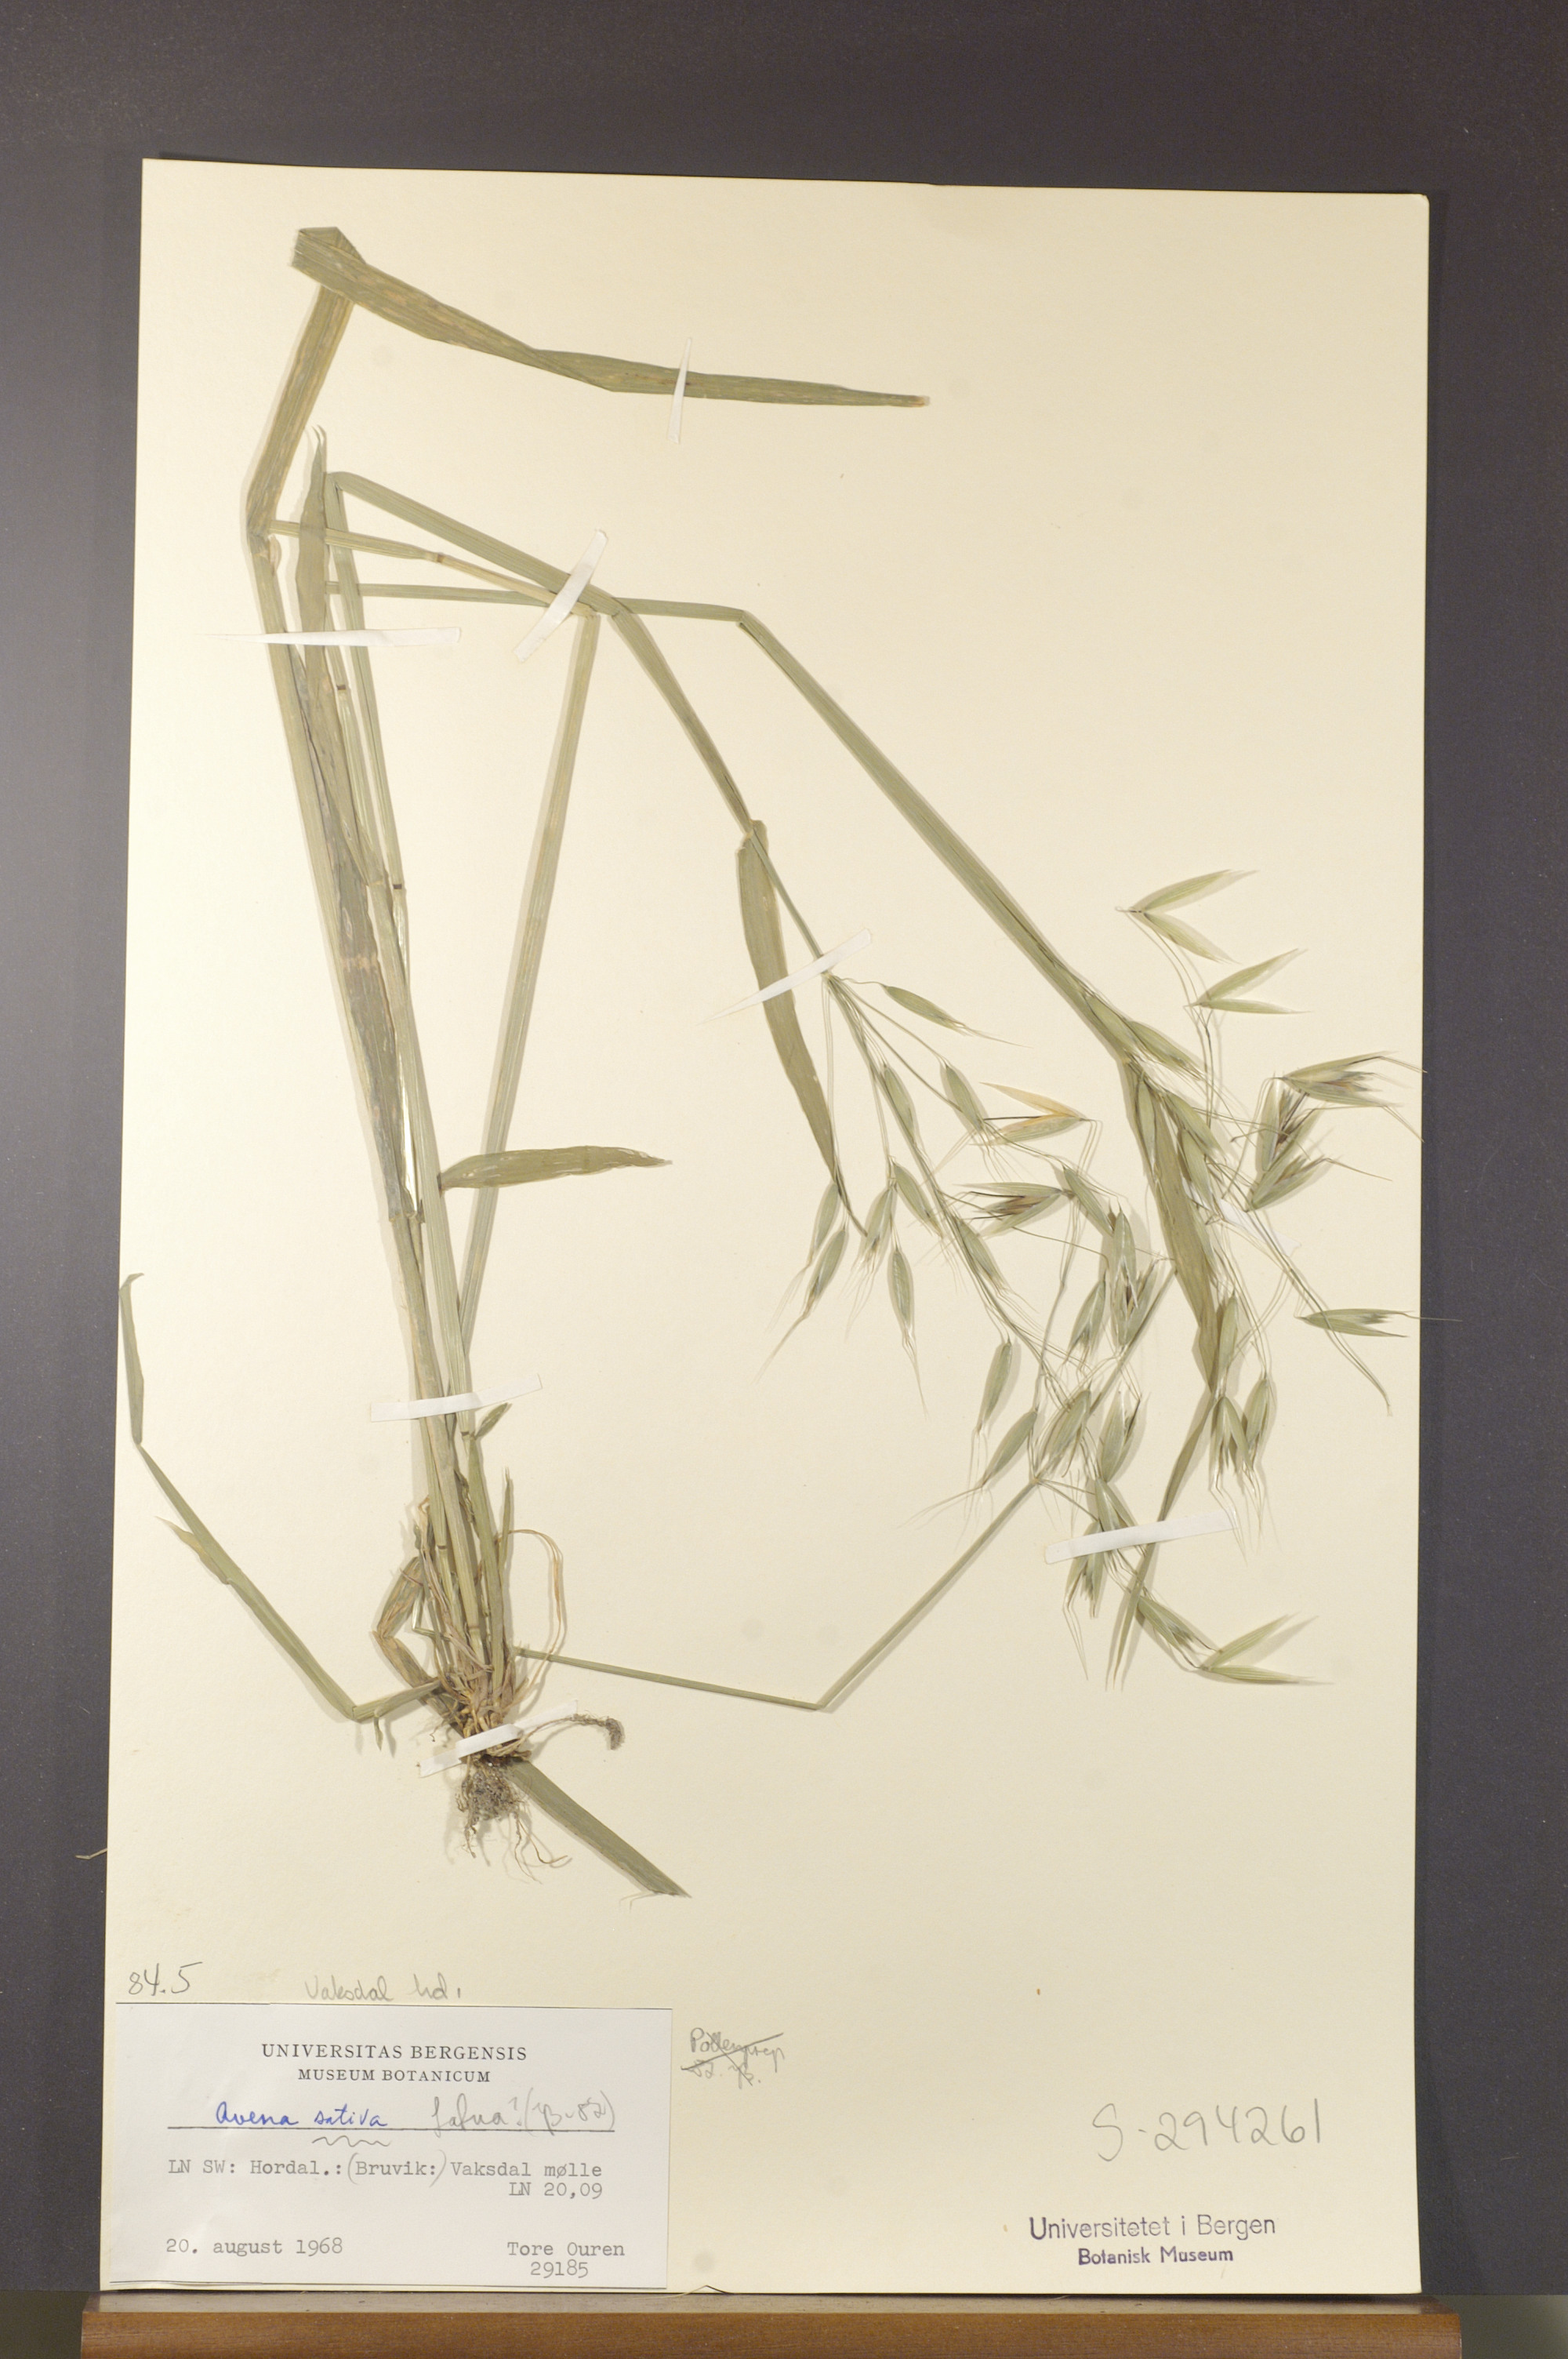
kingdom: Plantae
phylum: Tracheophyta
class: Liliopsida
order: Poales
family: Poaceae
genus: Avena
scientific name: Avena fatua
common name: Wild oat
